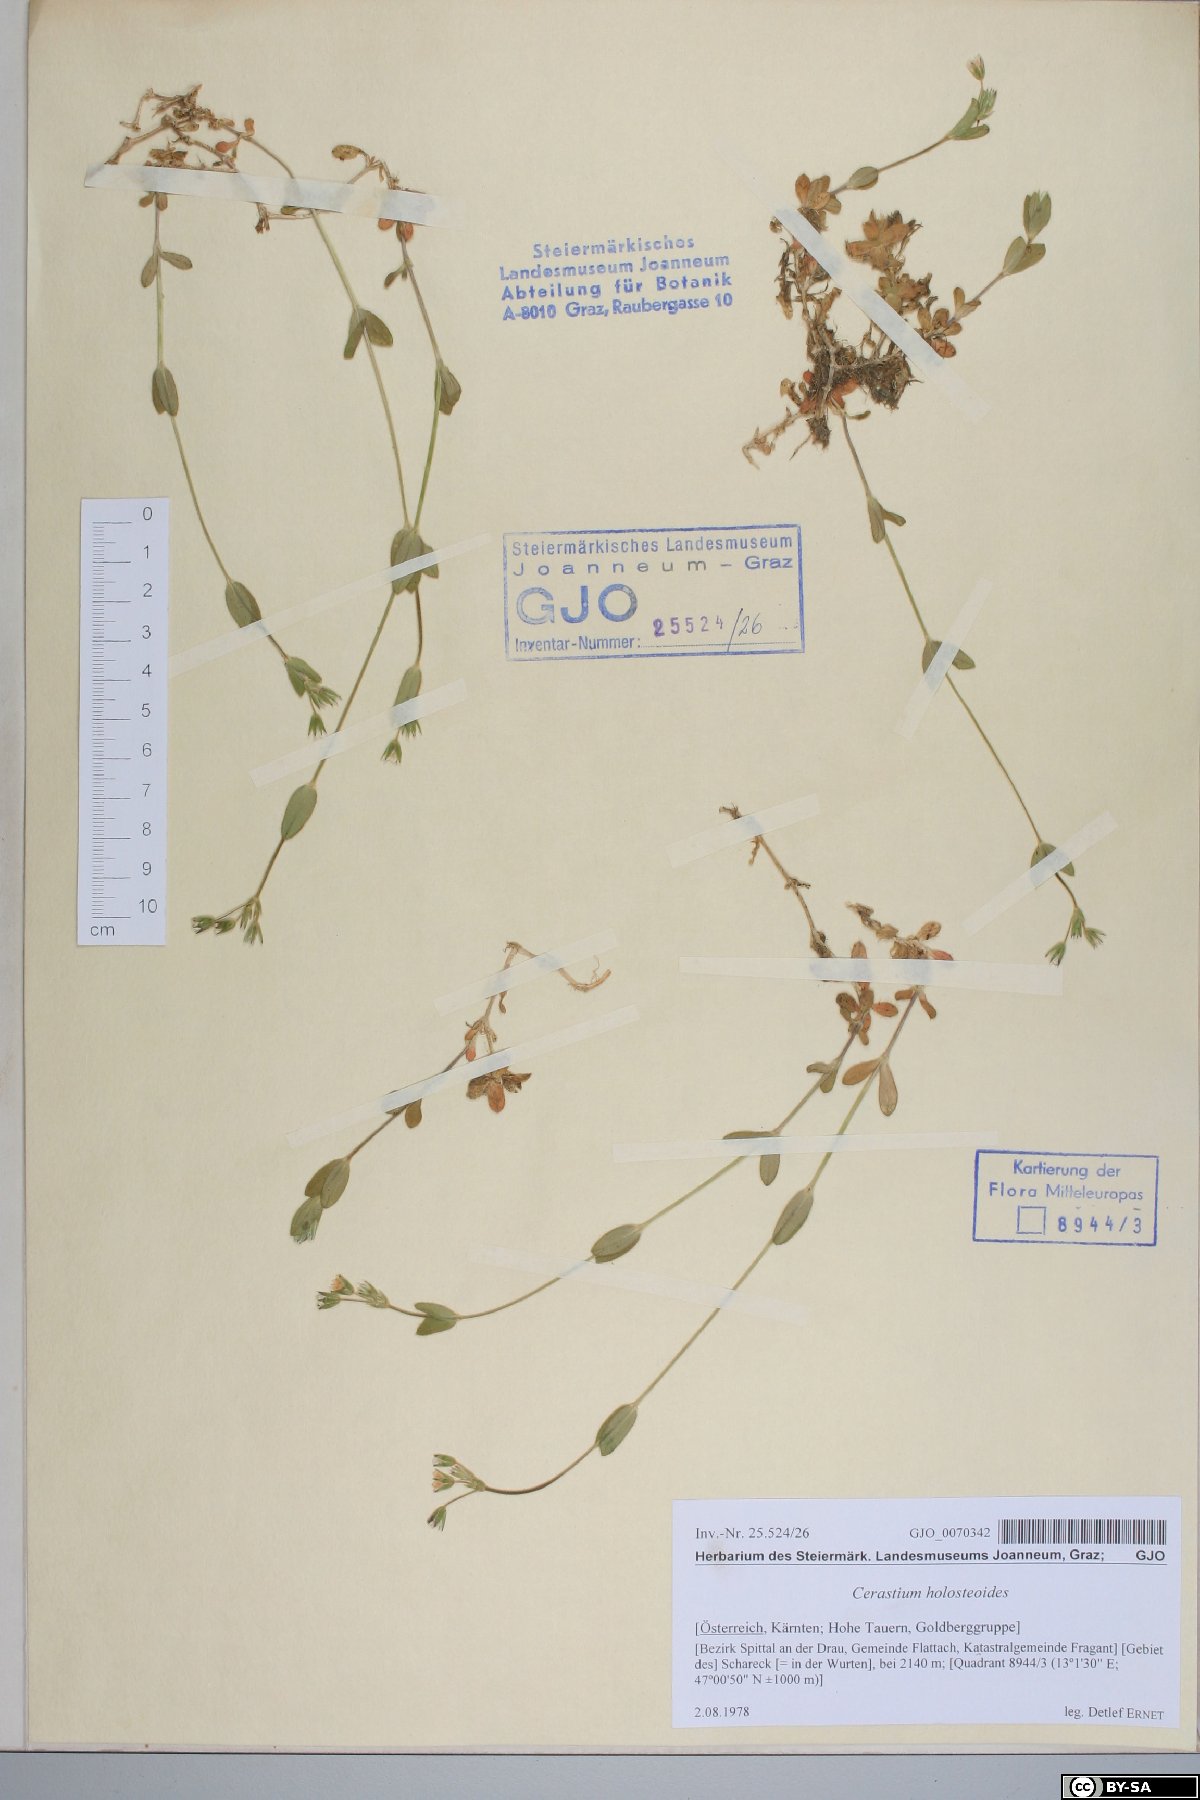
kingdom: Plantae
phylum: Tracheophyta
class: Magnoliopsida
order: Caryophyllales
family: Caryophyllaceae
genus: Cerastium
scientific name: Cerastium holosteoides
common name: Big chickweed
